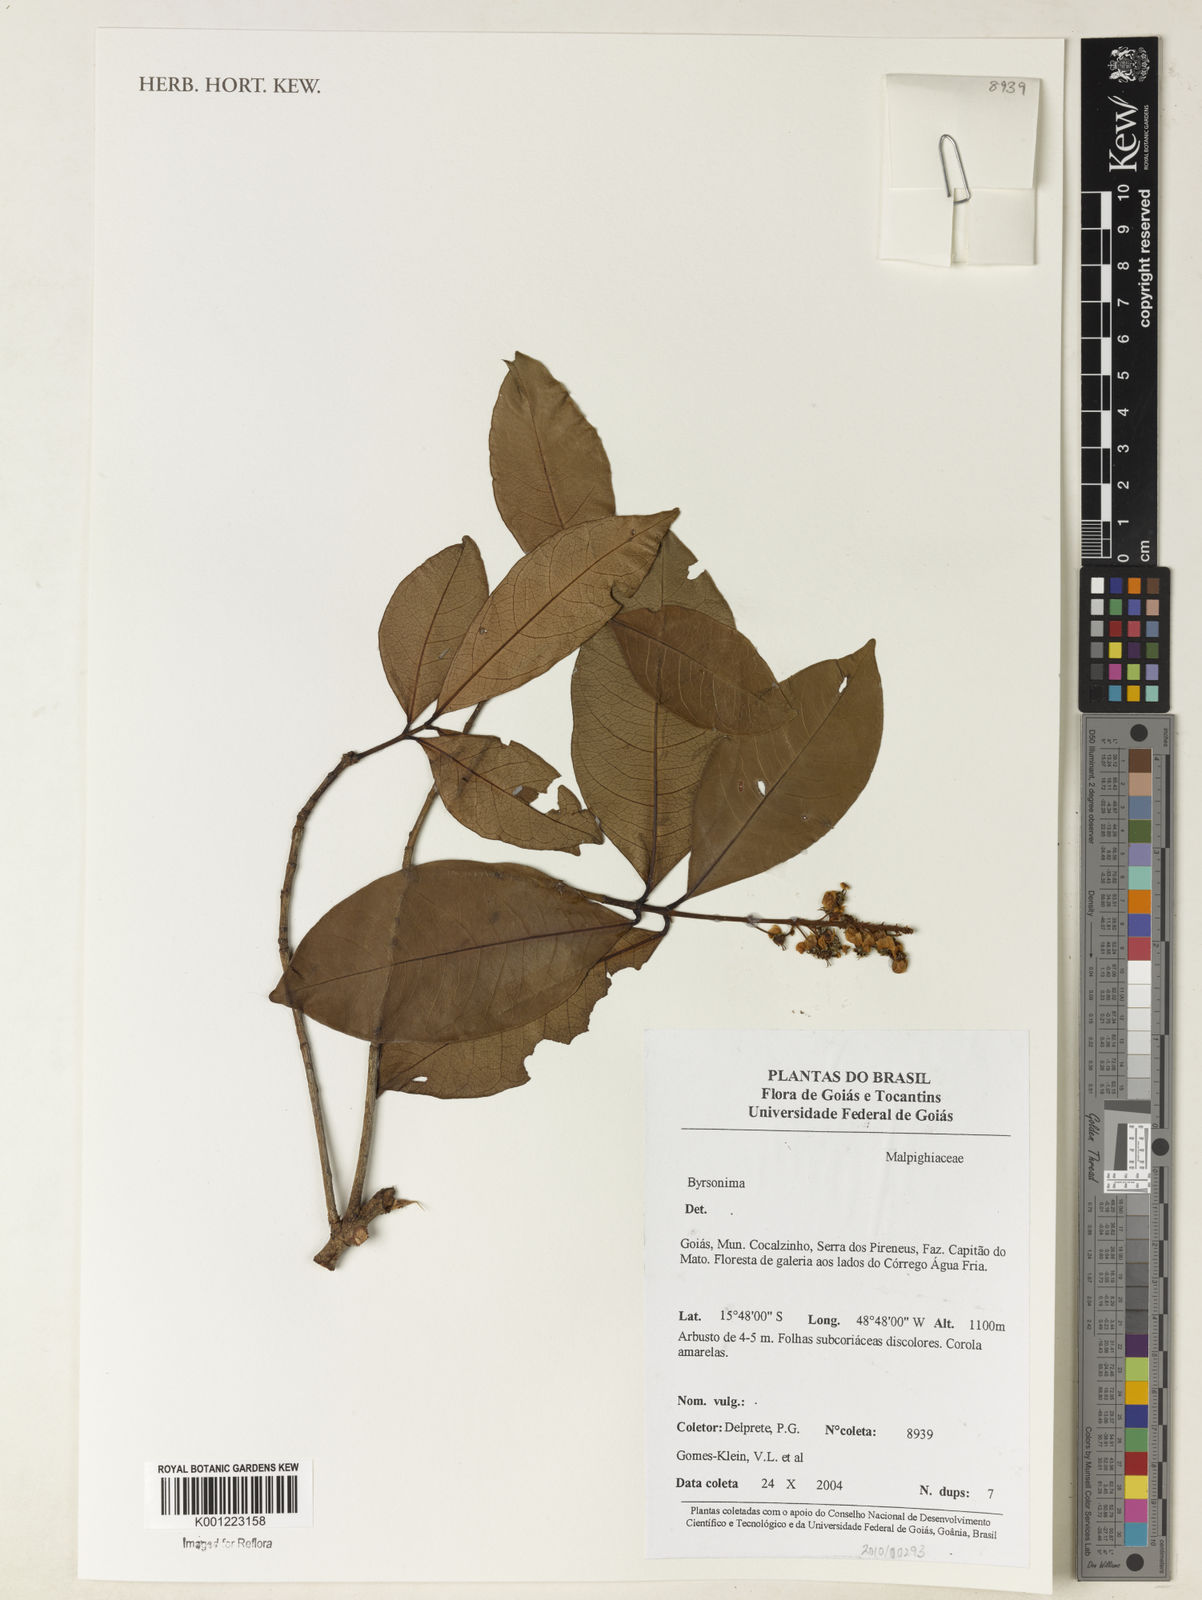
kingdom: Plantae
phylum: Tracheophyta
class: Magnoliopsida
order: Malpighiales
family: Malpighiaceae
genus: Byrsonima
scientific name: Byrsonima
